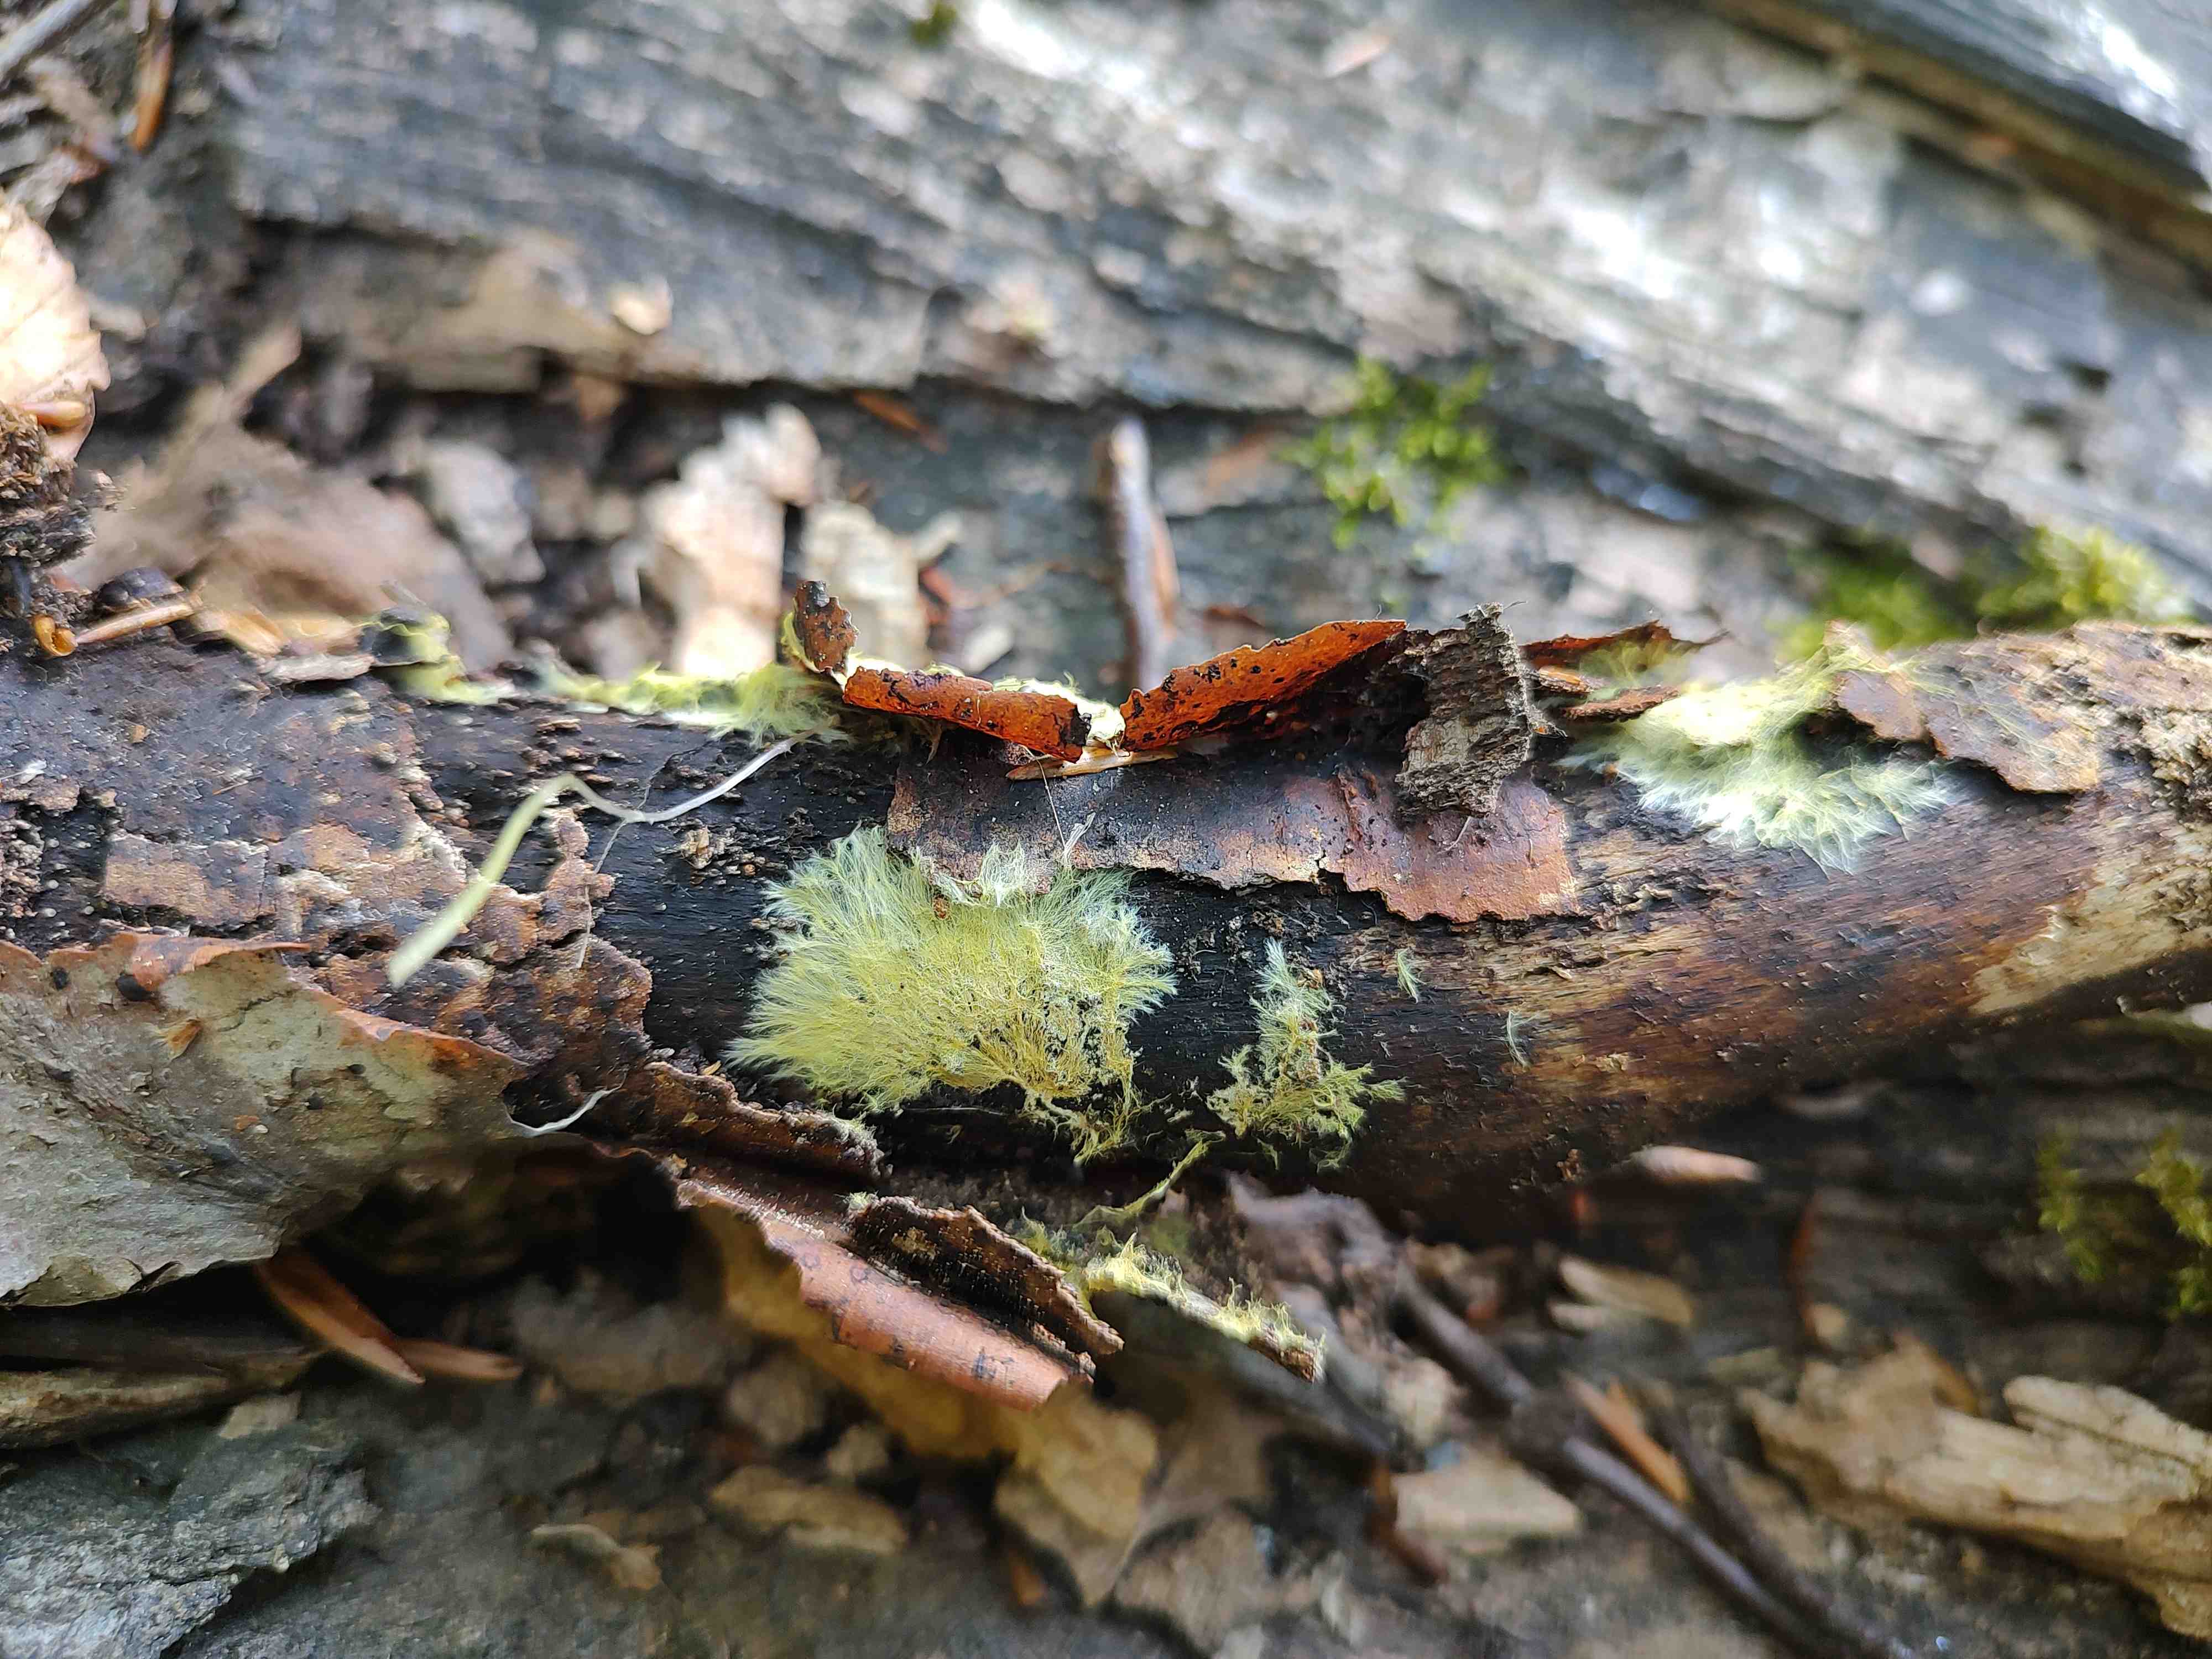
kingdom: Fungi
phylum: Basidiomycota
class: Agaricomycetes
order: Russulales
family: Xenasmataceae
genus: Xenasmatella
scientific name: Xenasmatella vaga
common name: svovl-strenghinde
